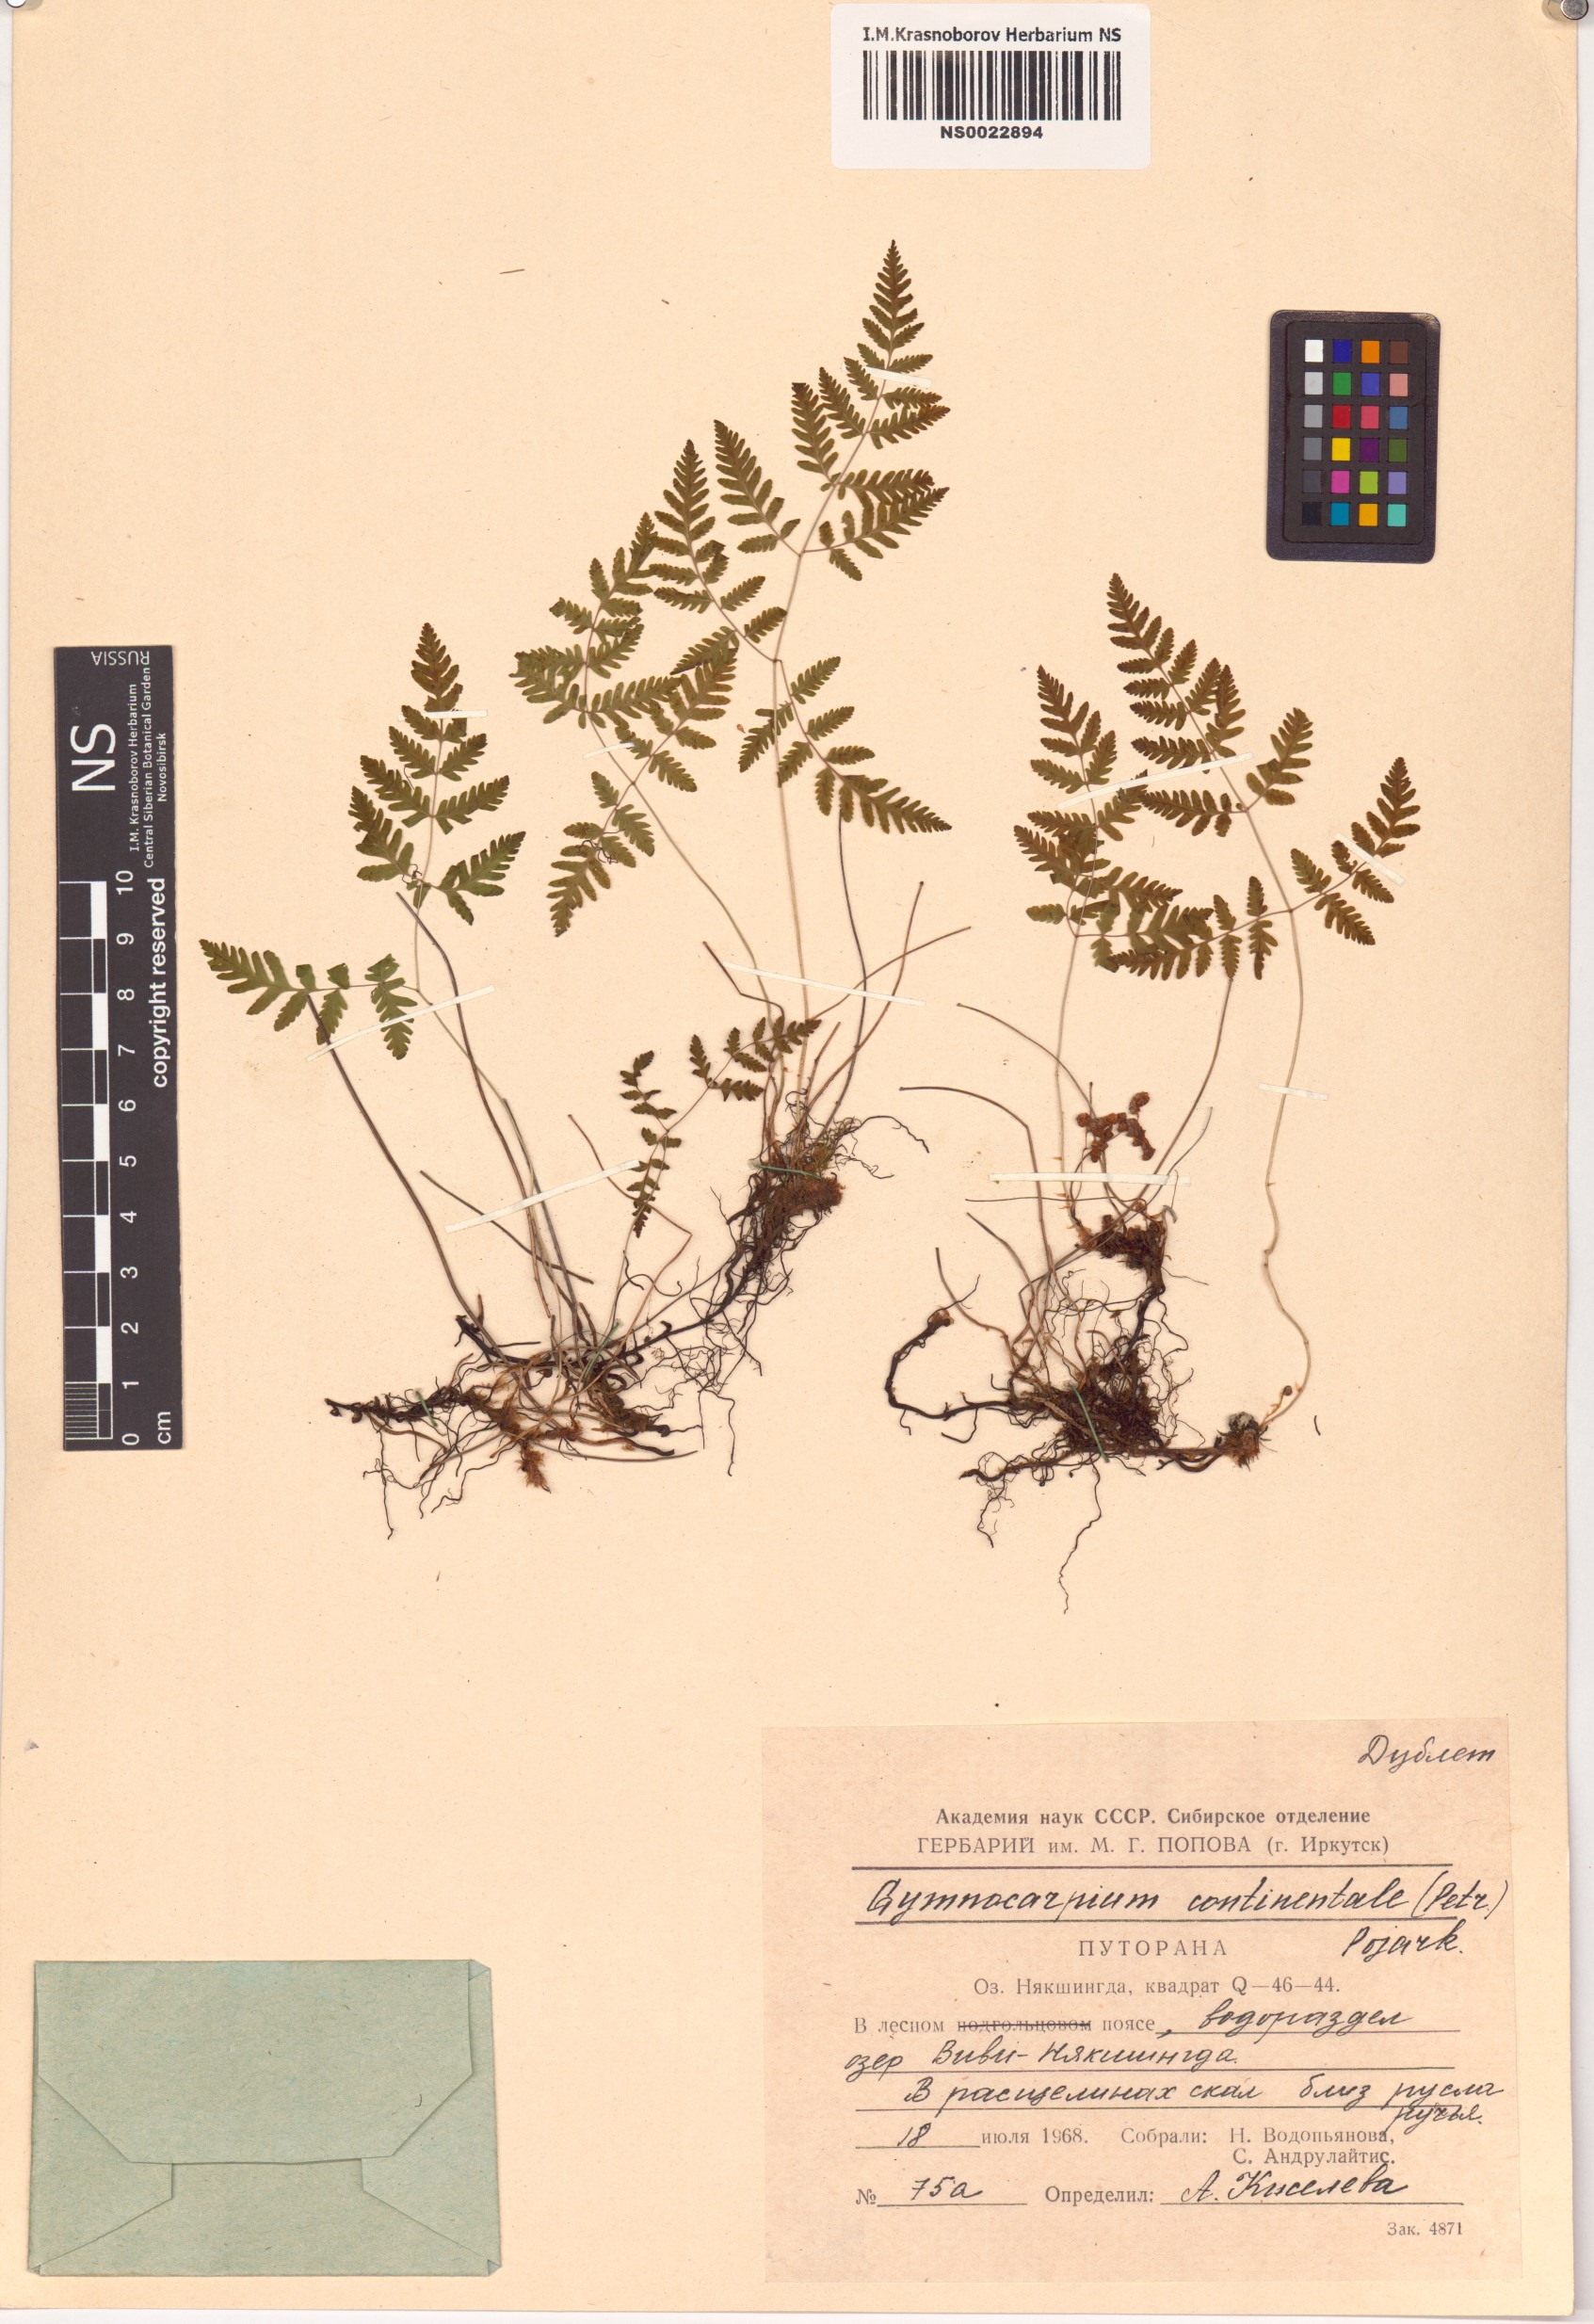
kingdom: Plantae
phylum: Tracheophyta
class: Polypodiopsida
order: Polypodiales
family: Cystopteridaceae
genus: Gymnocarpium
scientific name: Gymnocarpium continentale
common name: Asian oak fern
